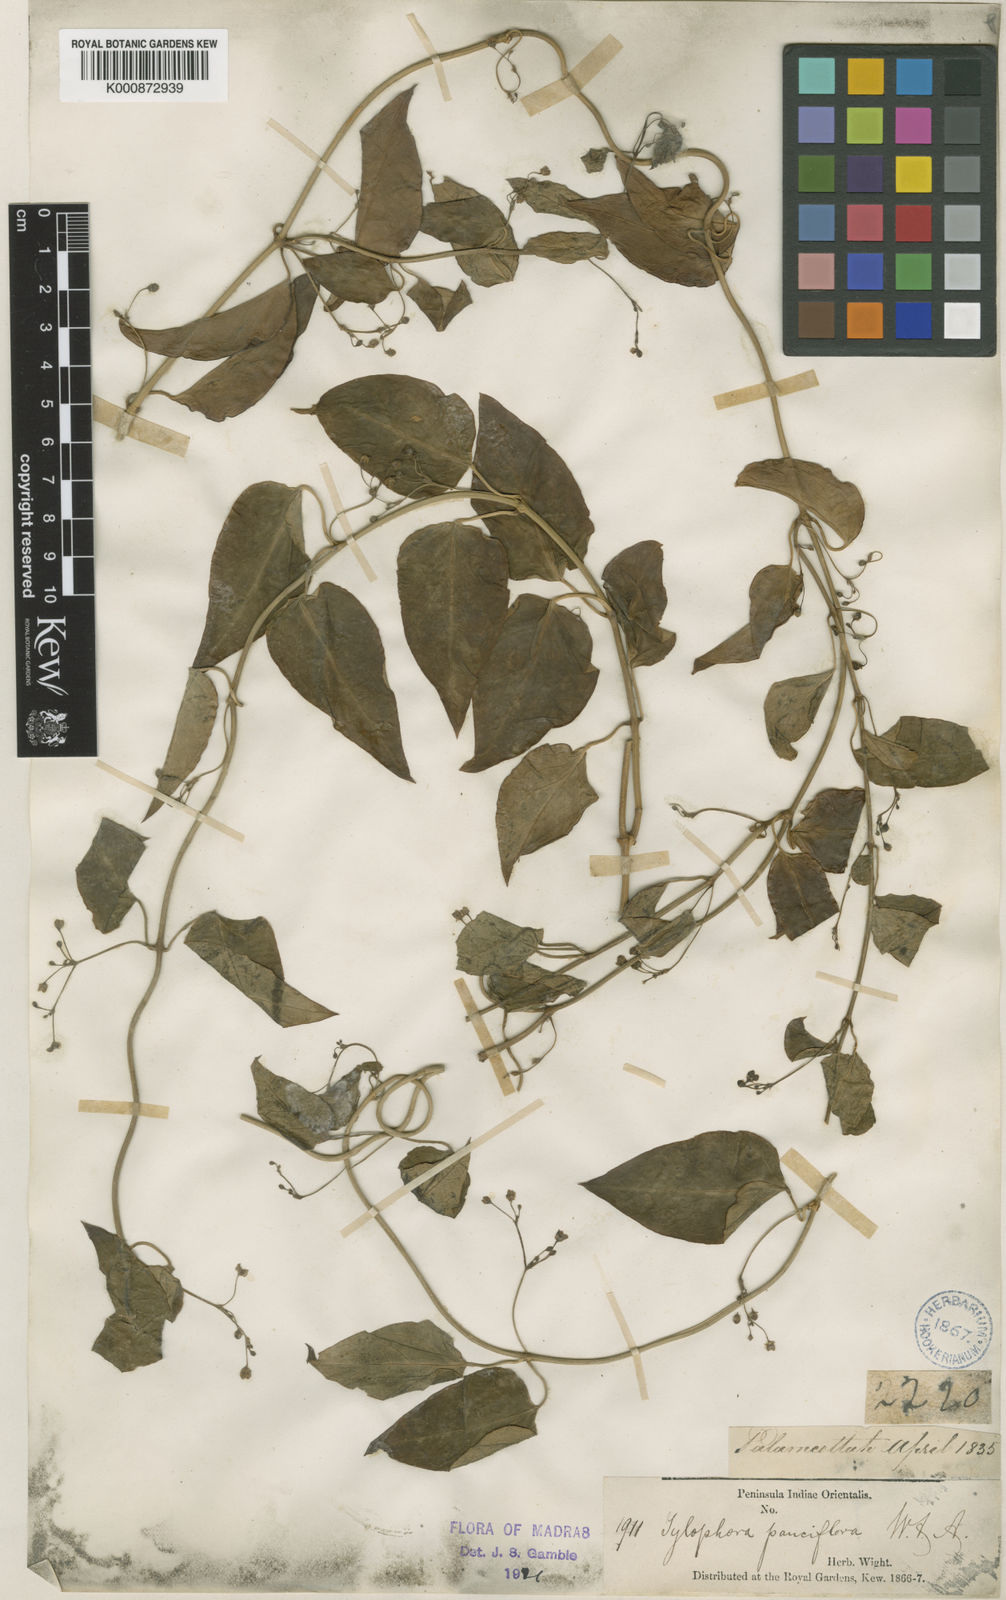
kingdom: Plantae
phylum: Tracheophyta
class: Magnoliopsida
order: Gentianales
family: Apocynaceae
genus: Vincetoxicum
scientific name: Vincetoxicum bracteatum
